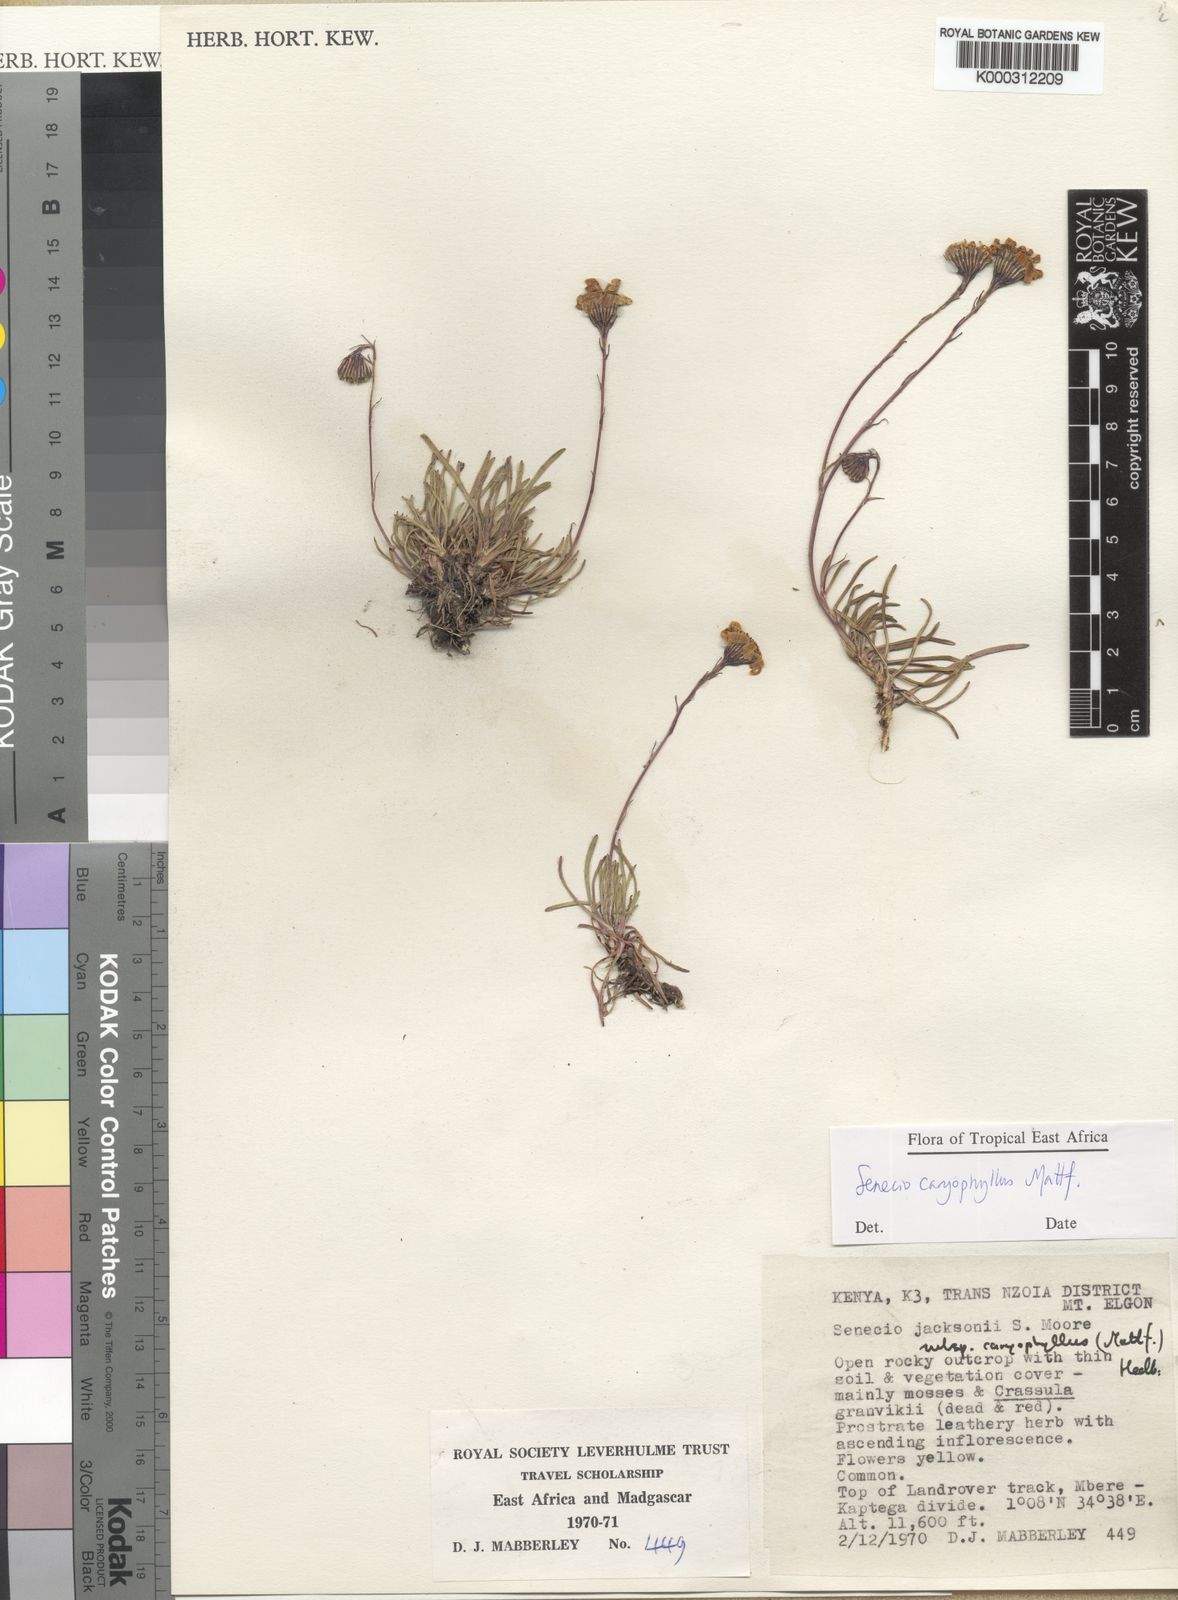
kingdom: Plantae
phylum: Tracheophyta
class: Magnoliopsida
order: Asterales
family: Asteraceae
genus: Senecio
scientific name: Senecio jacksonii
